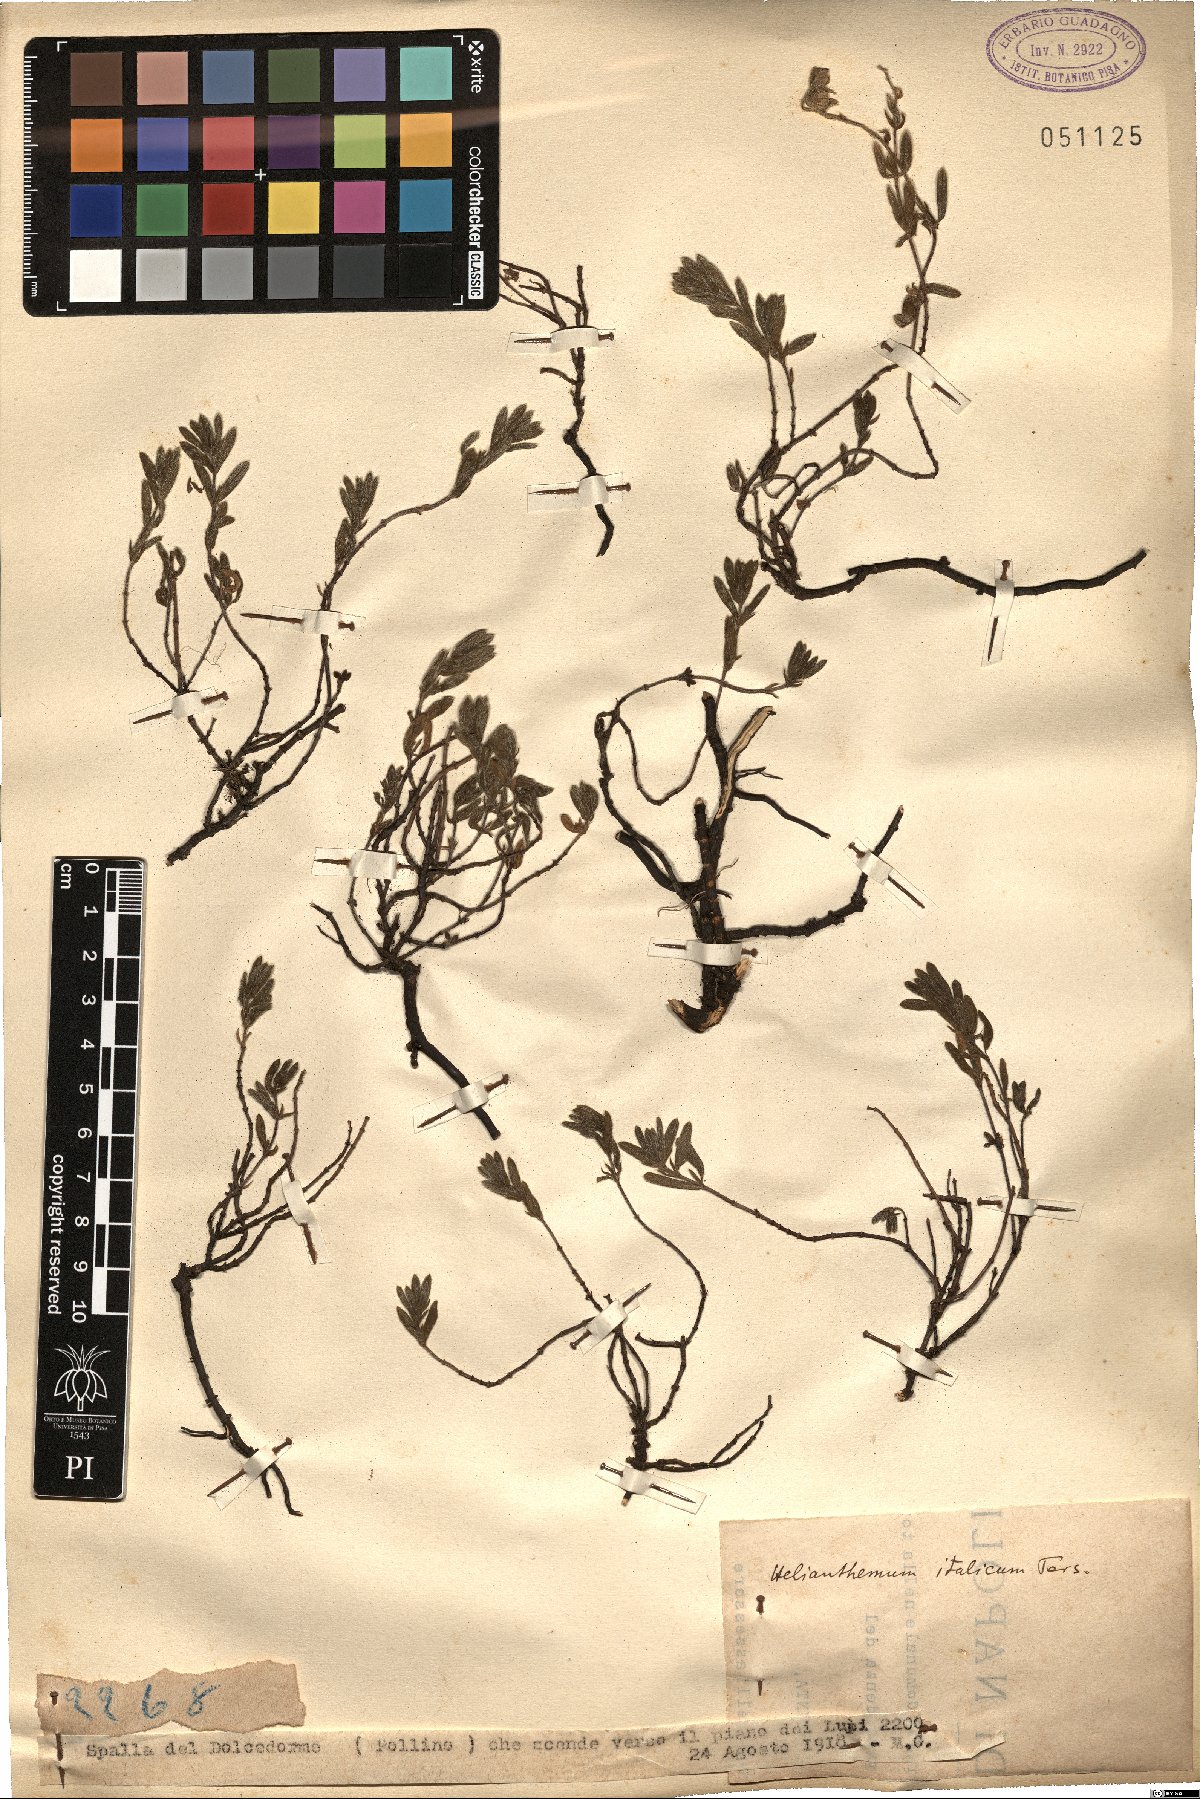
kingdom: Plantae
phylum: Tracheophyta
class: Magnoliopsida
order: Malvales
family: Cistaceae
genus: Helianthemum
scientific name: Helianthemum italicum
